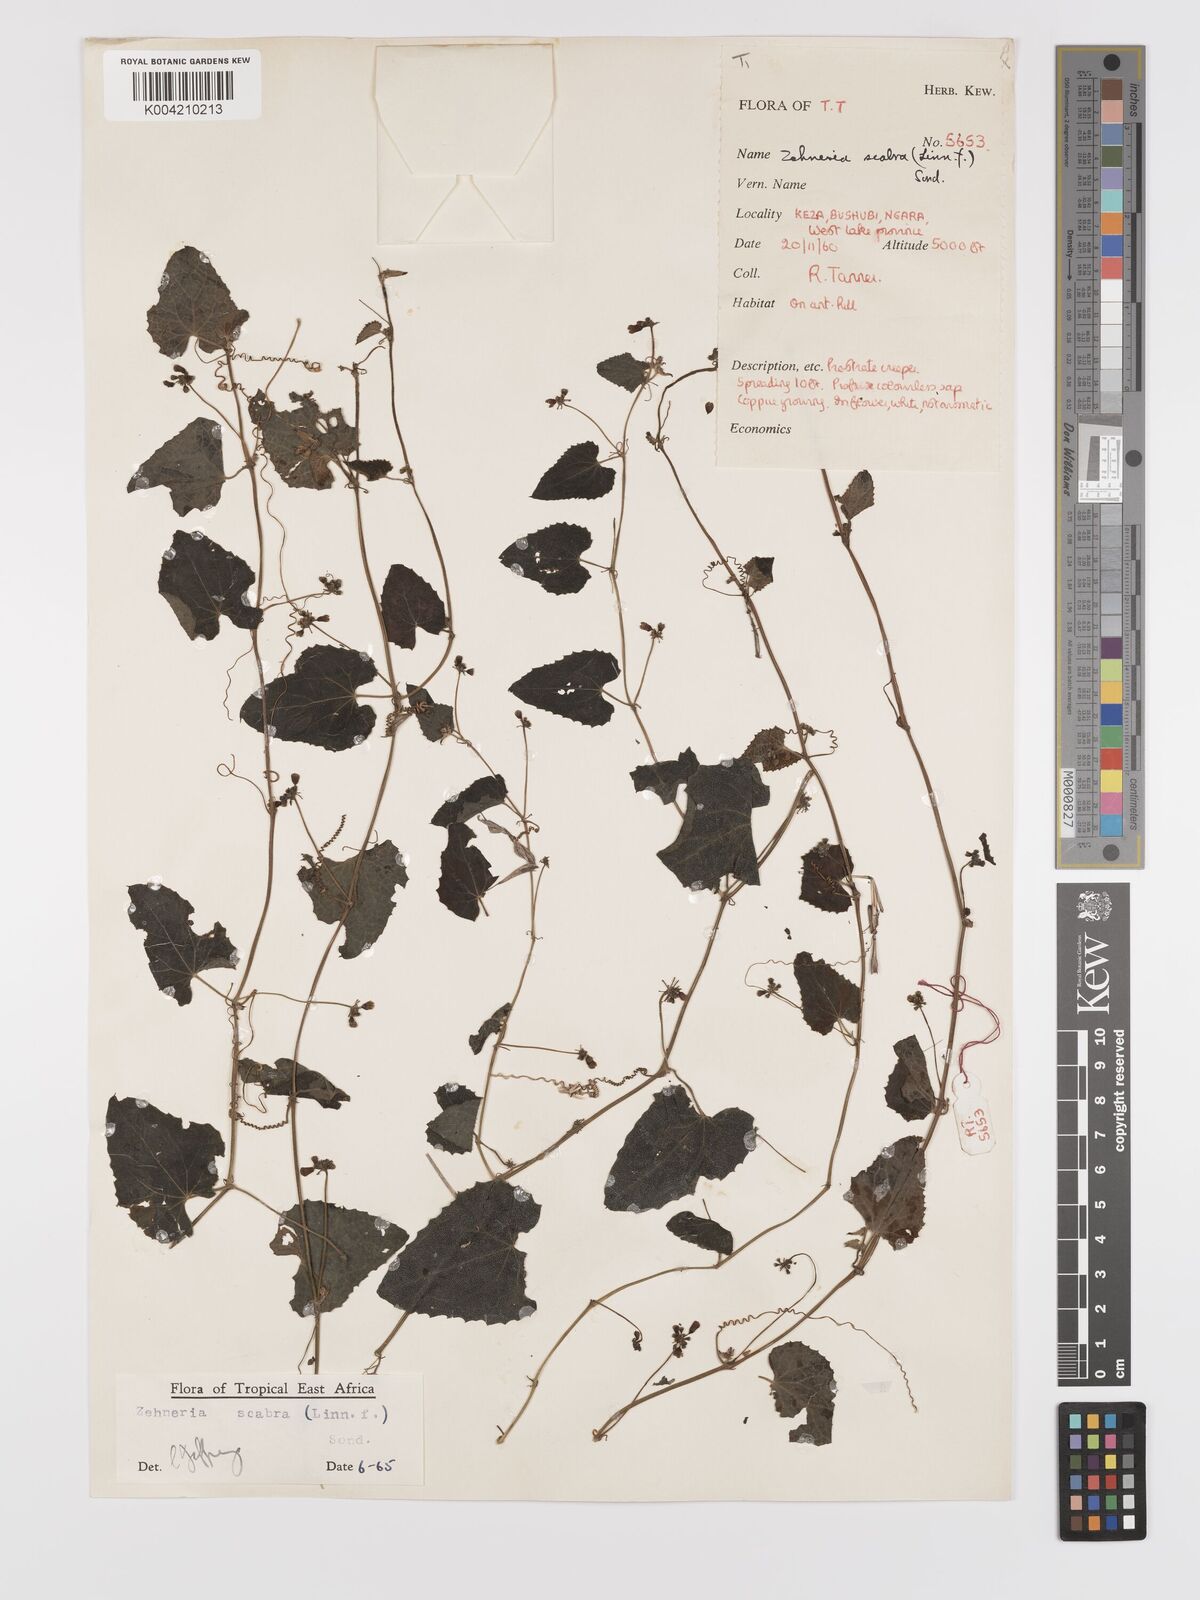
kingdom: Plantae
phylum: Tracheophyta
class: Magnoliopsida
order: Cucurbitales
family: Cucurbitaceae
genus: Zehneria
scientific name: Zehneria scabra
